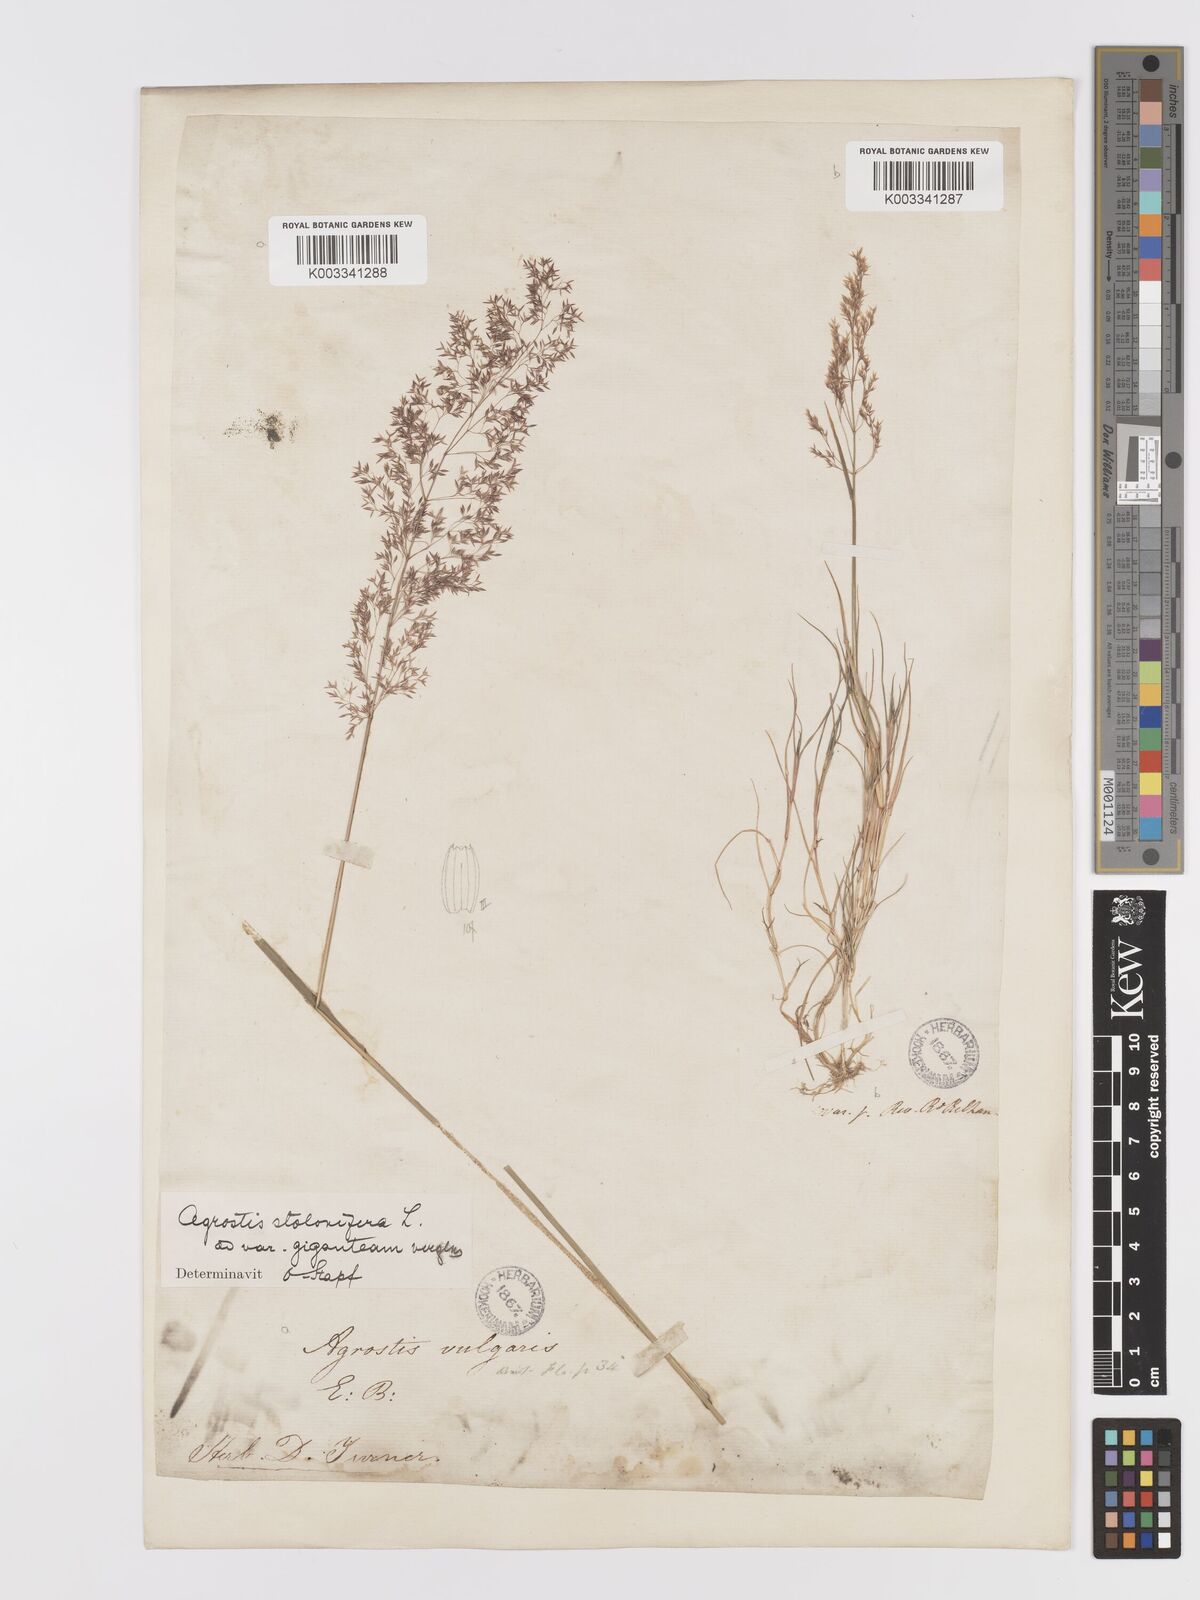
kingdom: Plantae
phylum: Tracheophyta
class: Liliopsida
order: Poales
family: Poaceae
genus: Agrostis
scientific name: Agrostis gigantea
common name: Black bent
